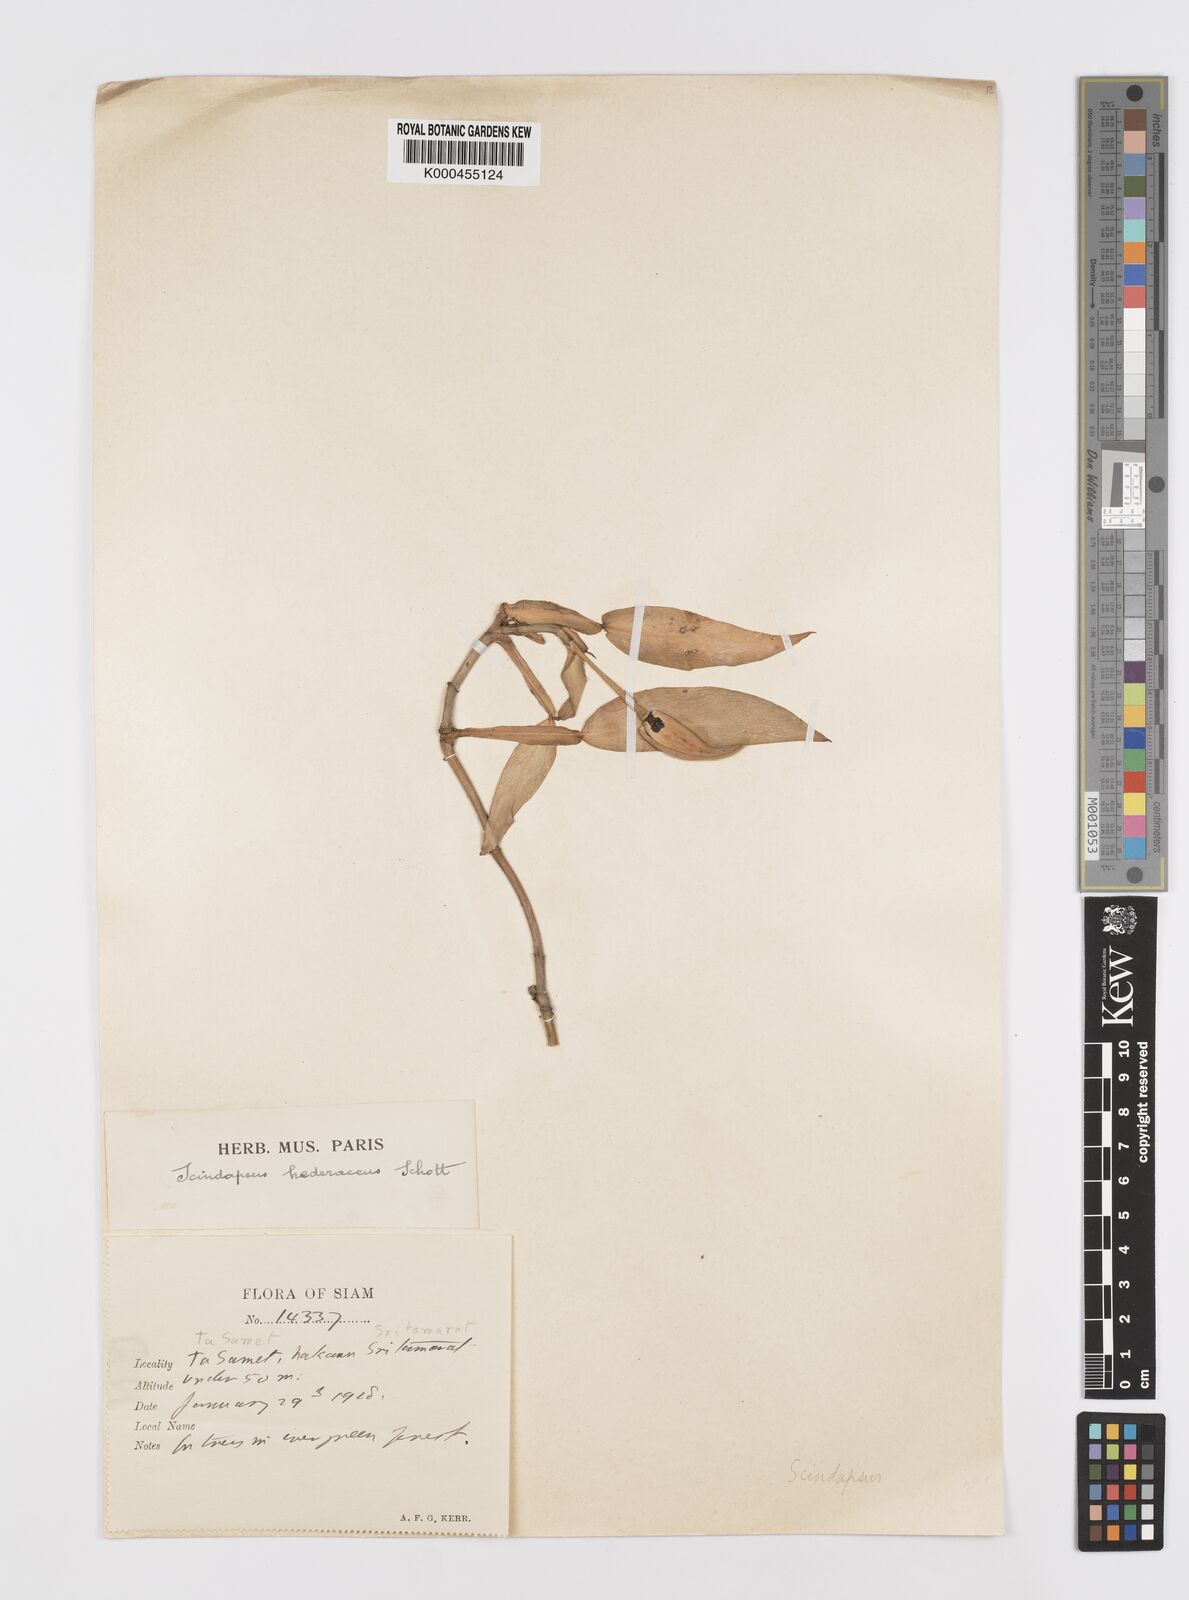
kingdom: Plantae
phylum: Tracheophyta
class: Liliopsida
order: Alismatales
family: Araceae
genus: Scindapsus
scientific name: Scindapsus hederaceus
